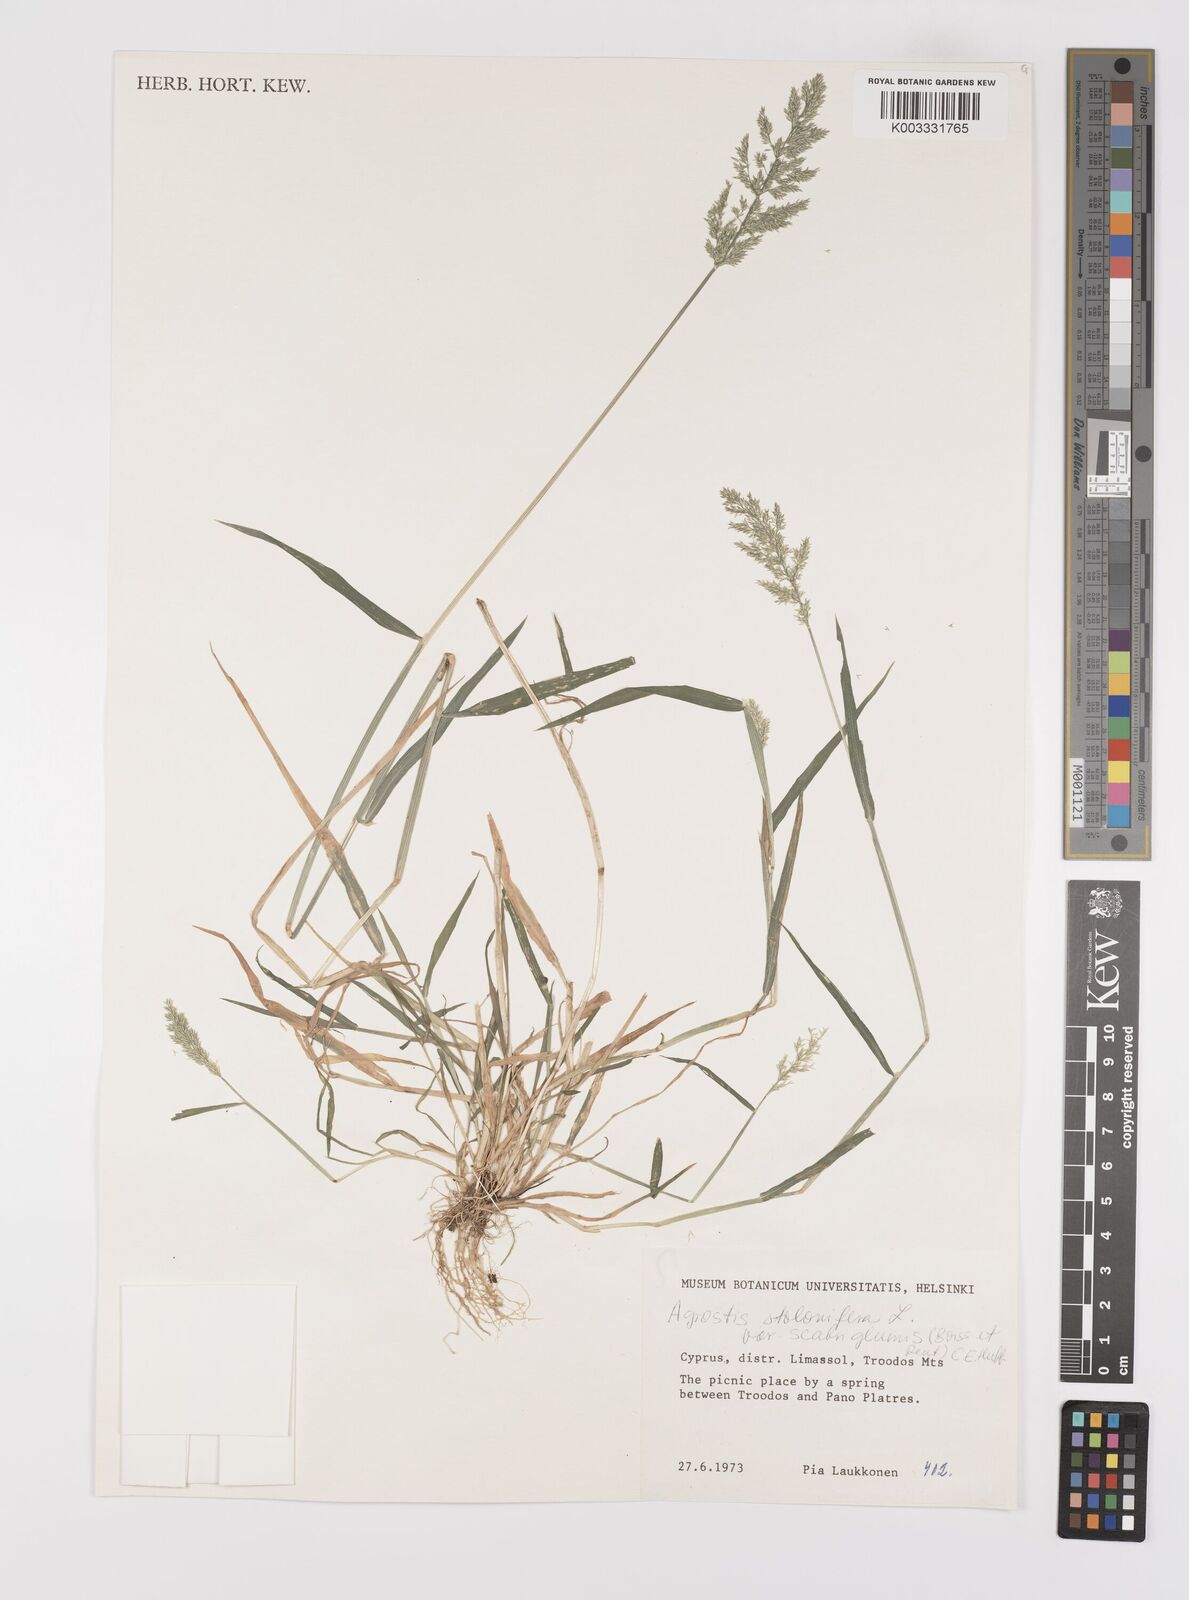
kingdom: Plantae
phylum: Tracheophyta
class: Liliopsida
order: Poales
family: Poaceae
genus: Polypogon
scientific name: Polypogon viridis
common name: Water bent
